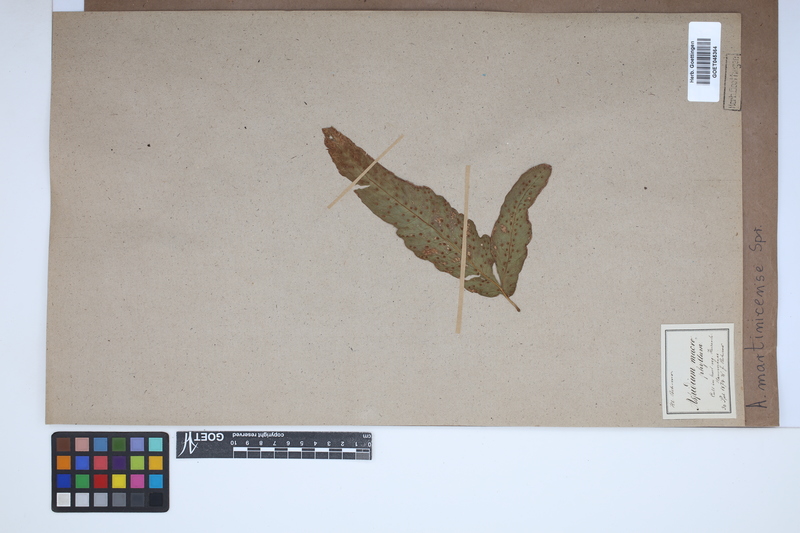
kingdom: Plantae
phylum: Tracheophyta
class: Polypodiopsida
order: Polypodiales
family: Tectariaceae
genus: Tectaria
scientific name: Tectaria incisa
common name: Incised halberd fern
